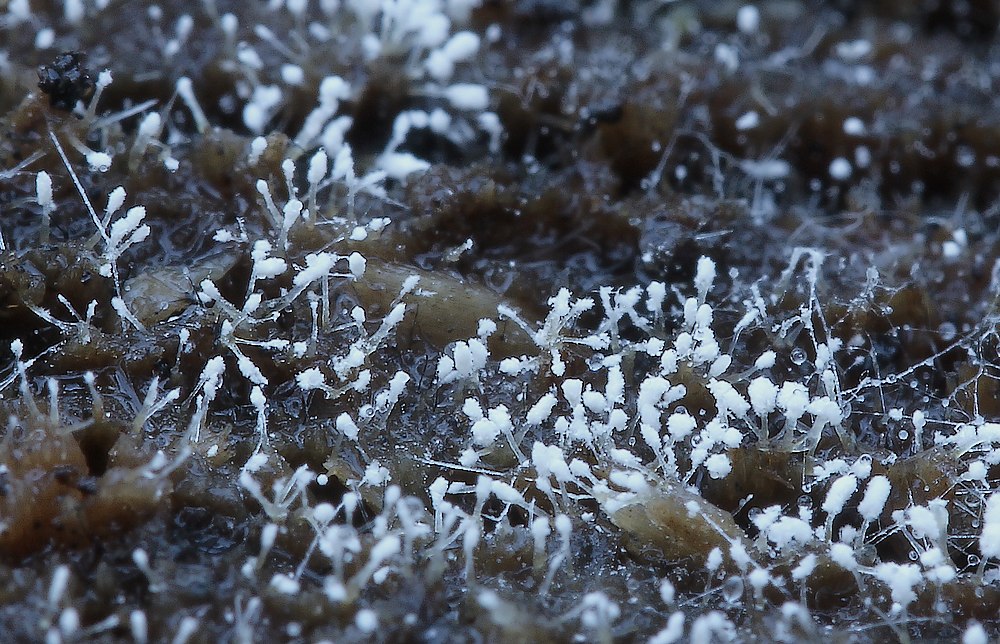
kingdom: Fungi
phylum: Ascomycota
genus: Sphaeridium
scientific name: Sphaeridium candidulum
